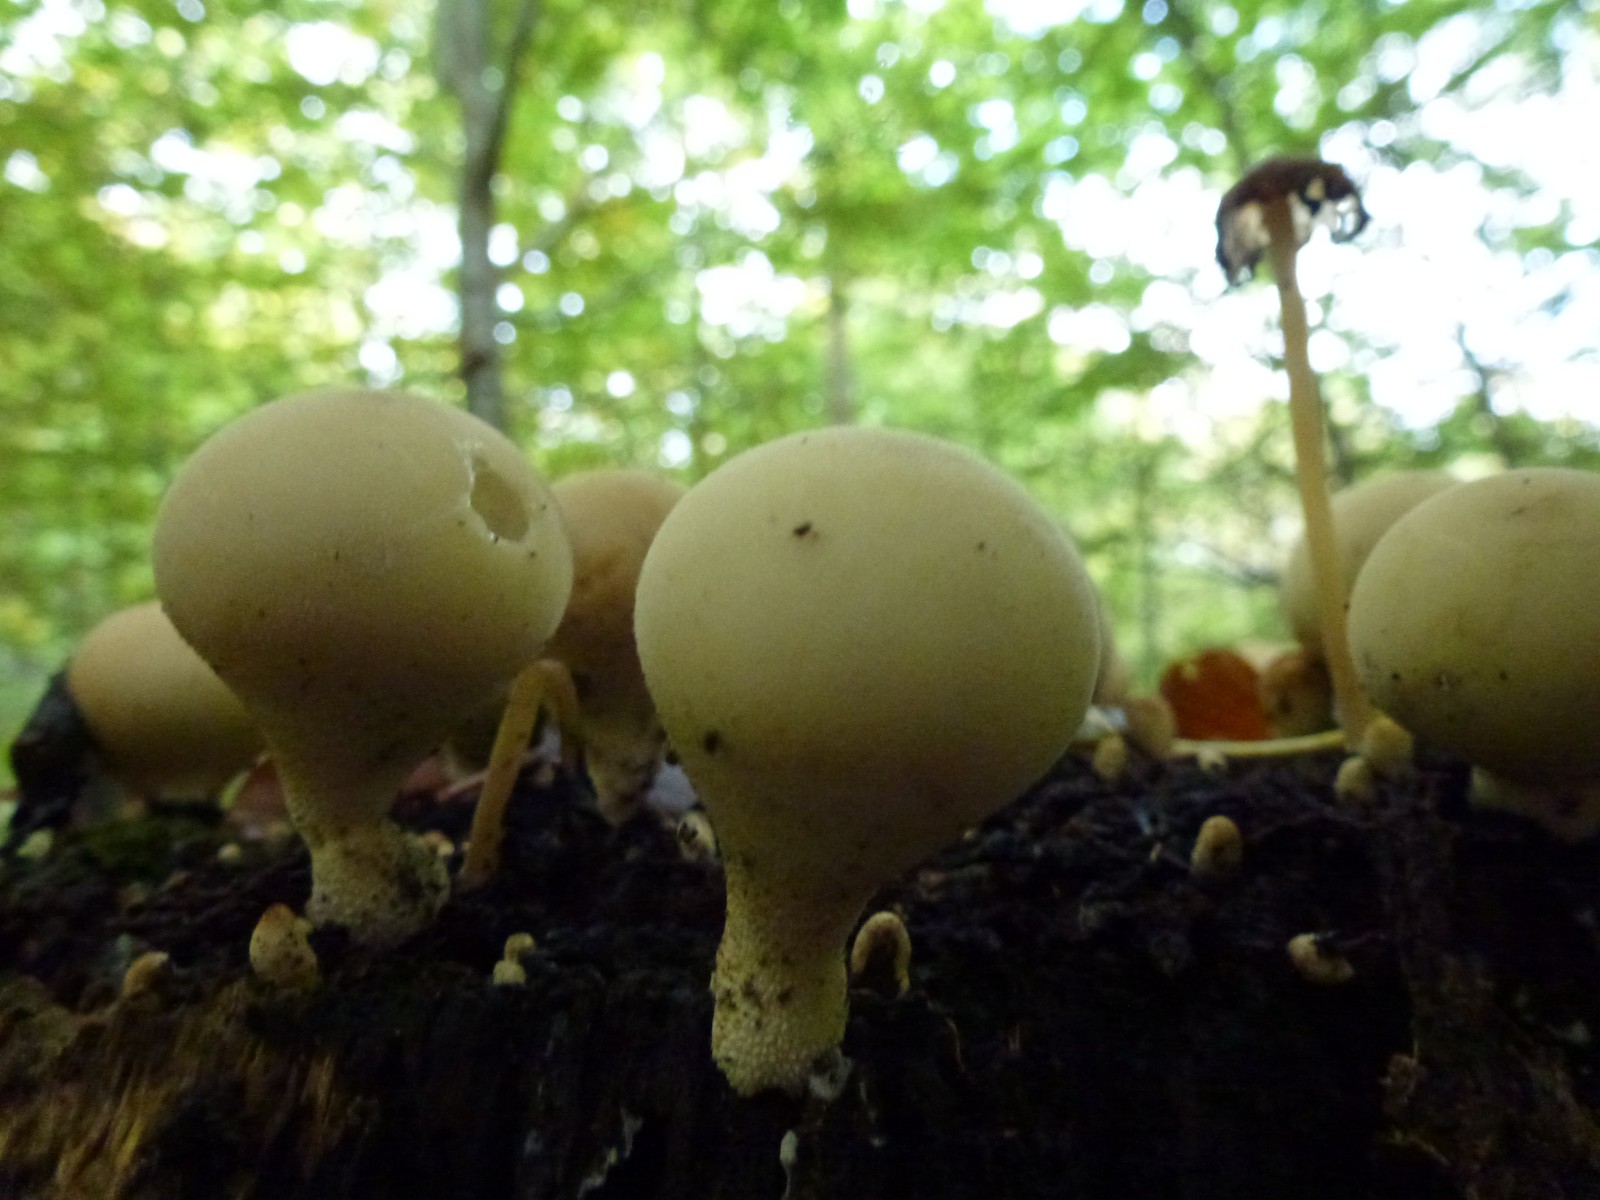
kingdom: Fungi
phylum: Basidiomycota
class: Agaricomycetes
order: Agaricales
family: Lycoperdaceae
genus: Apioperdon
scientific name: Apioperdon pyriforme
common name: pære-støvbold
